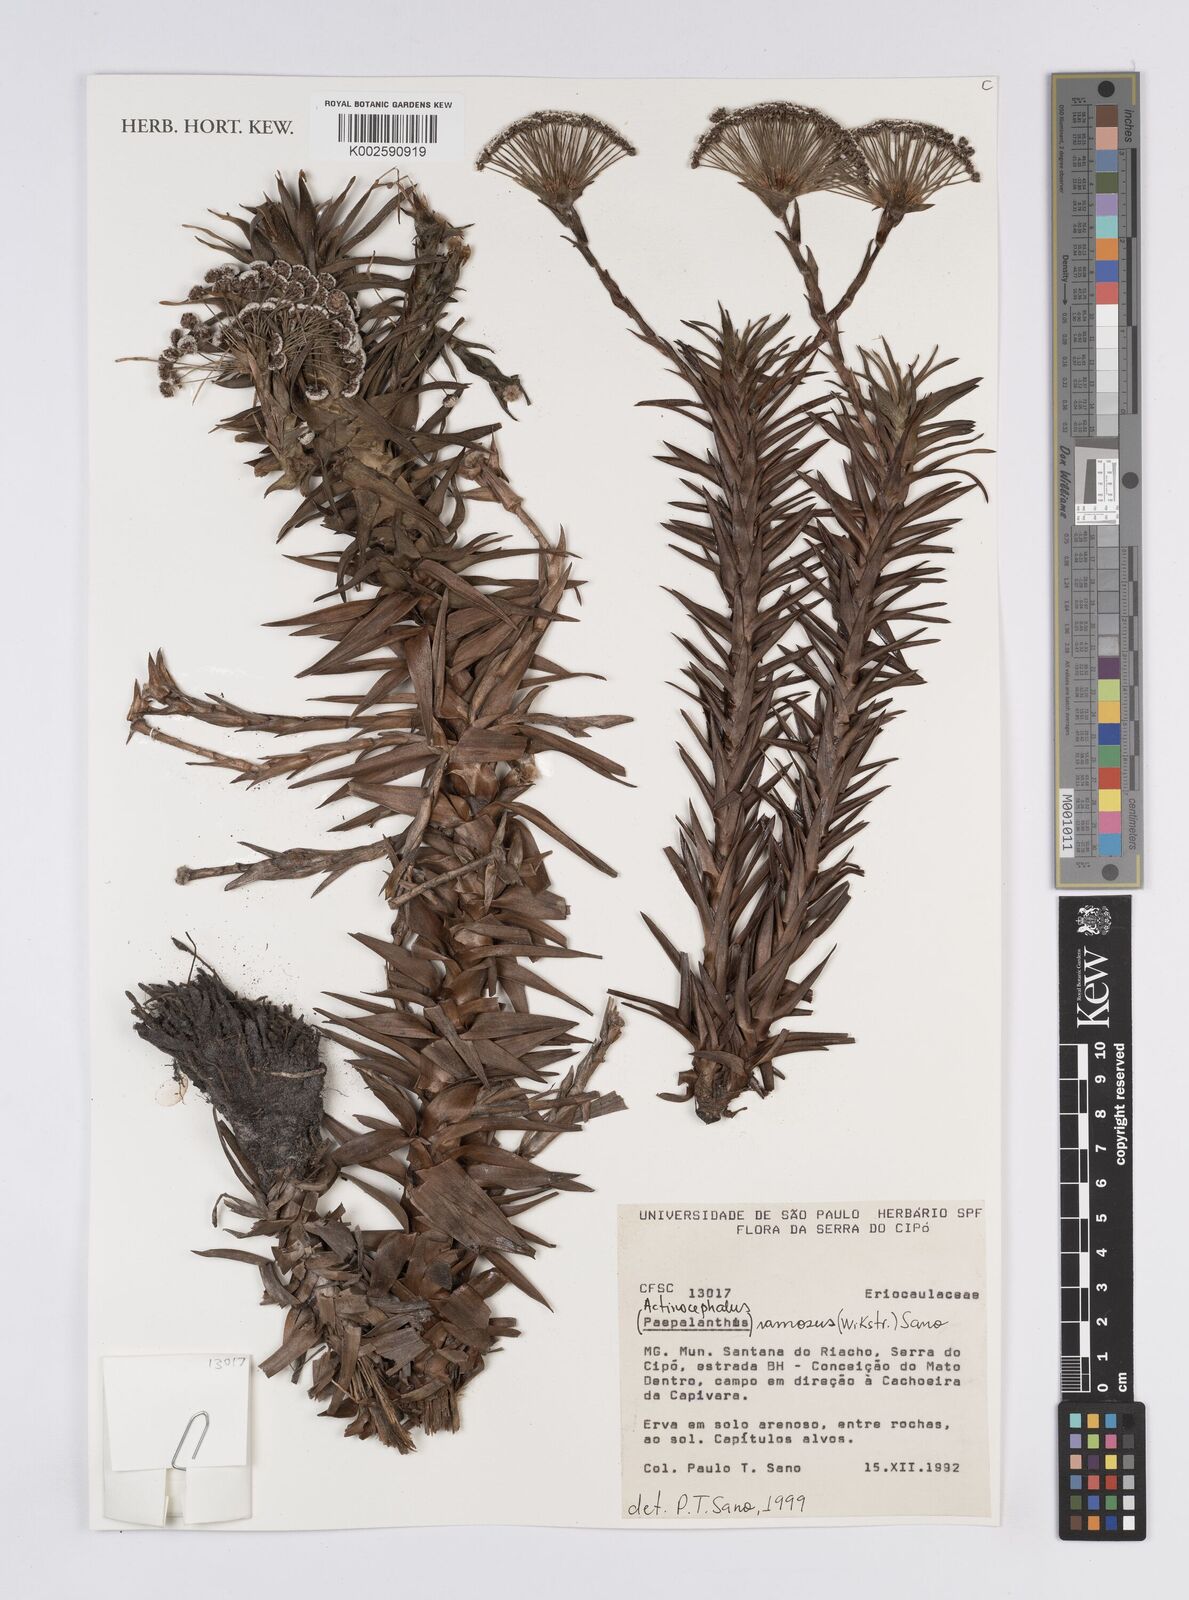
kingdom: Plantae
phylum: Tracheophyta
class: Liliopsida
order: Poales
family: Eriocaulaceae
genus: Paepalanthus
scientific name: Paepalanthus ramosus
